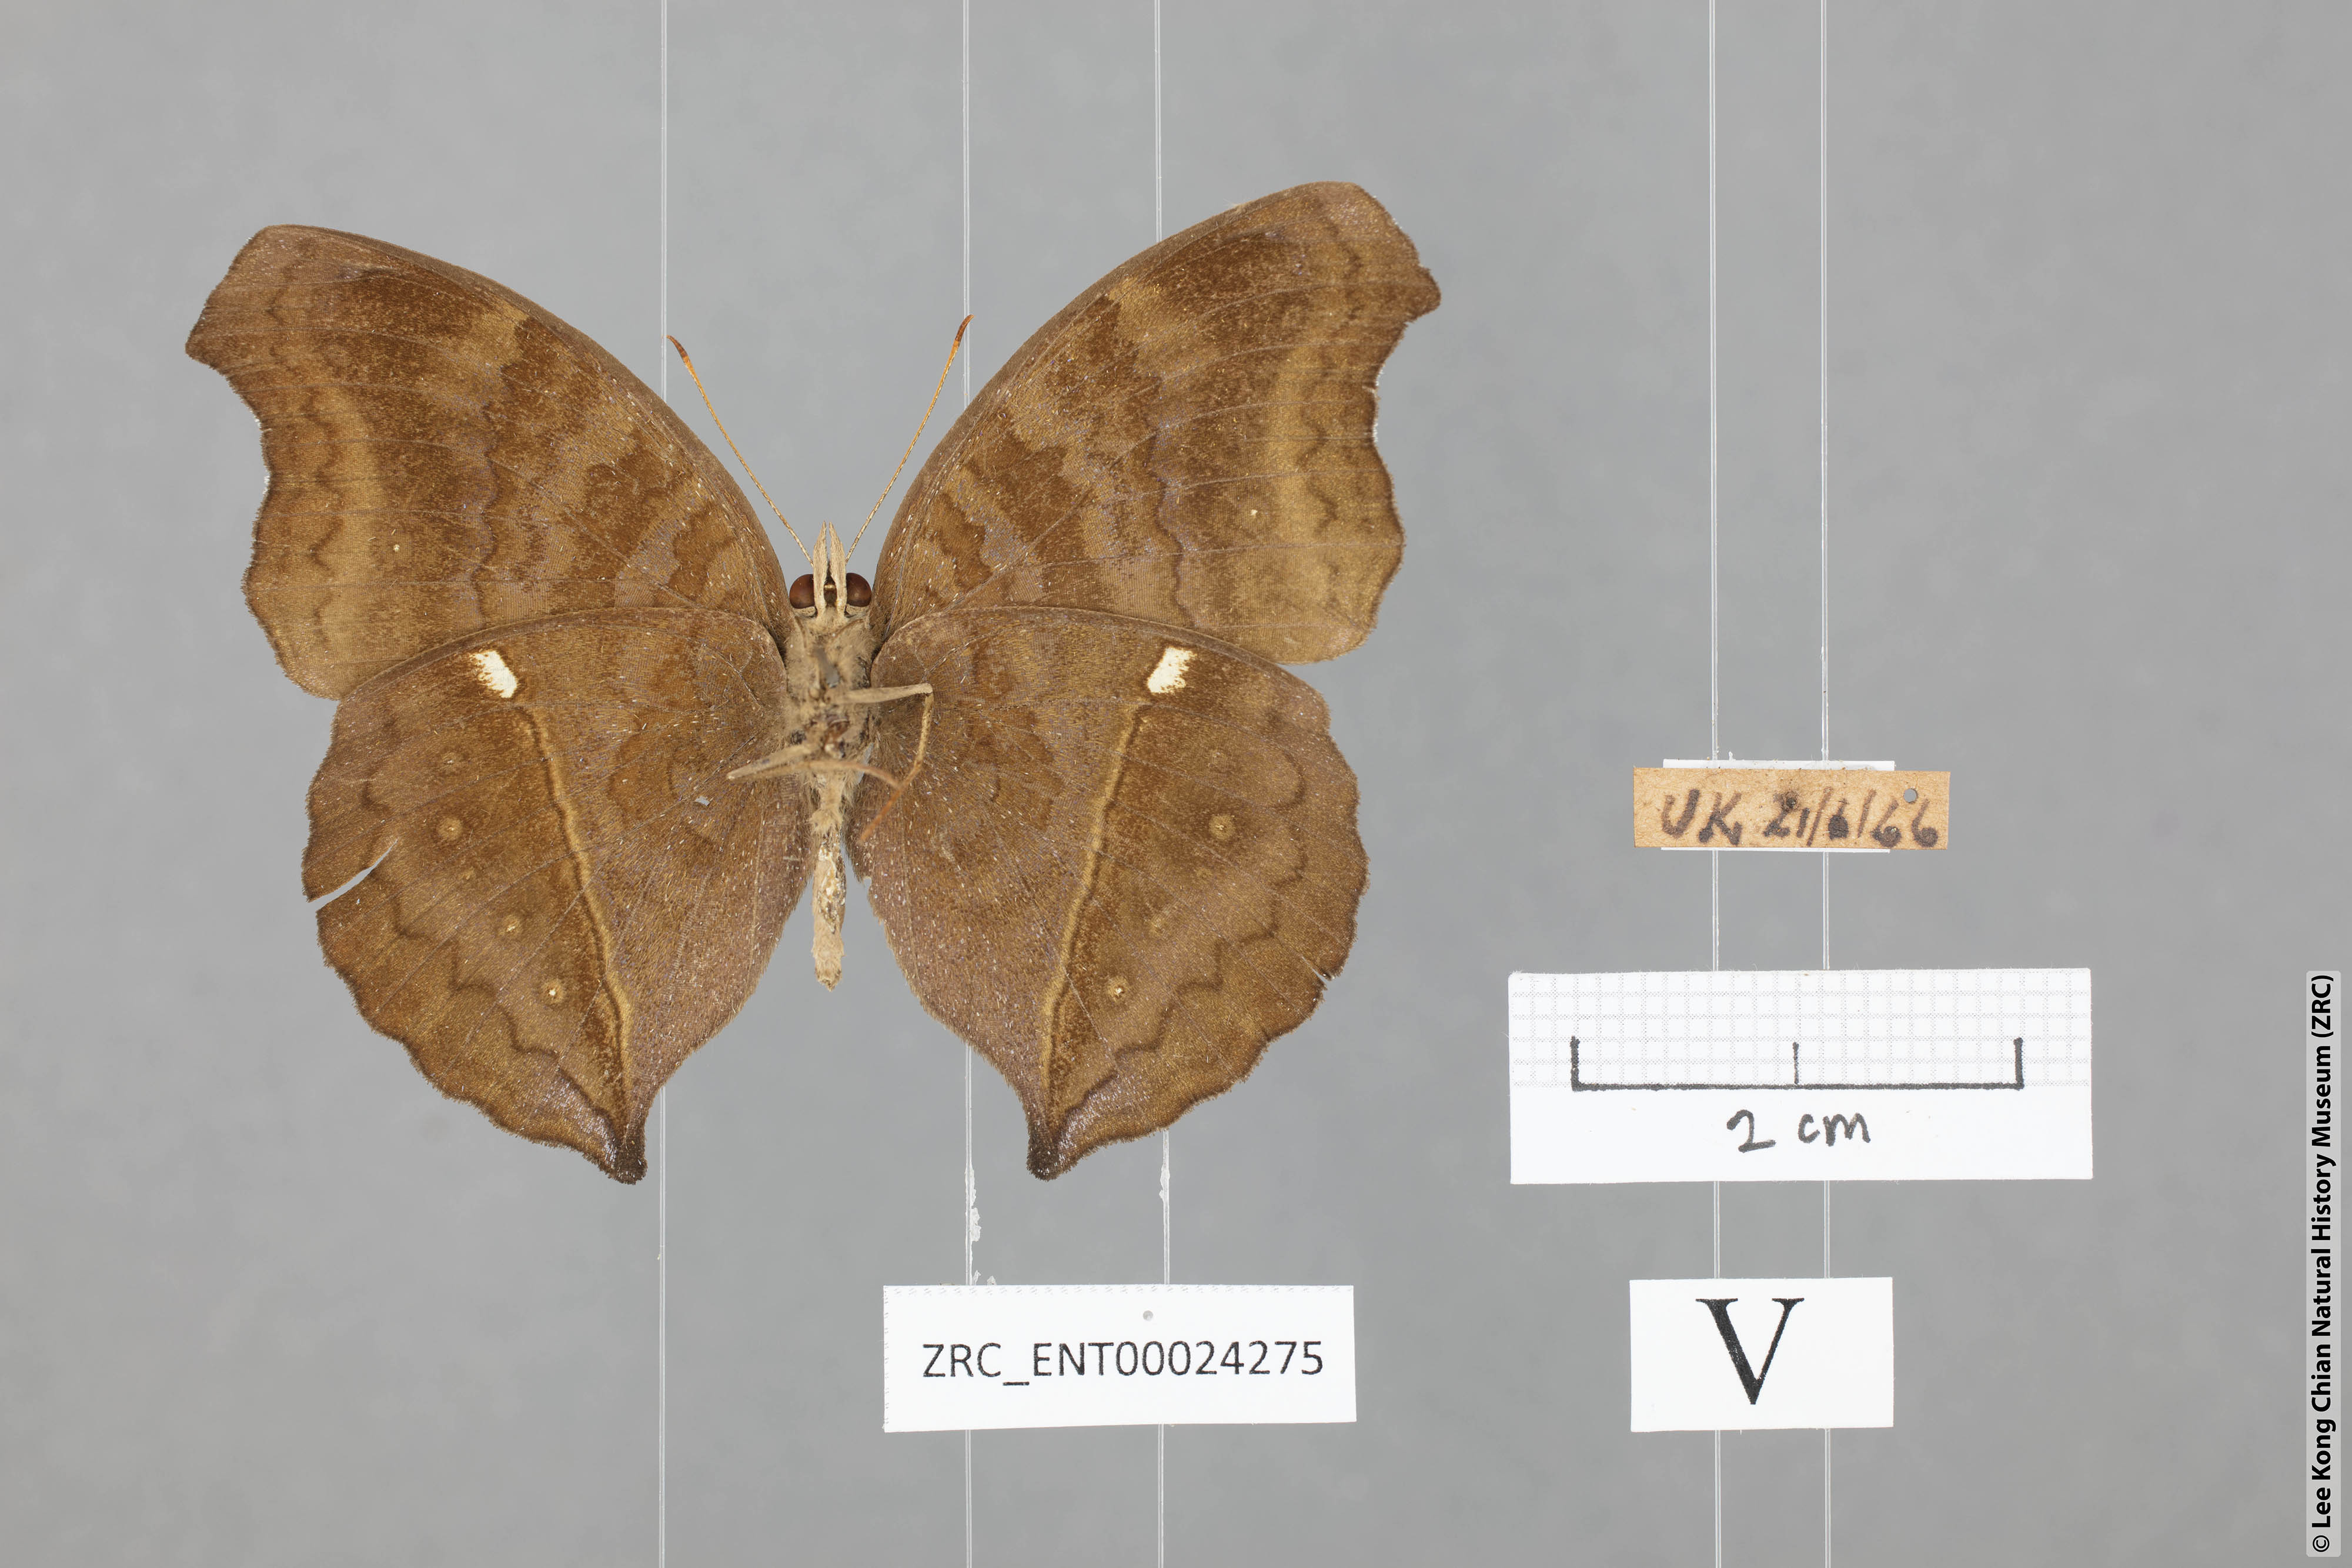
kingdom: Animalia
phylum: Arthropoda
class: Insecta
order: Lepidoptera
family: Nymphalidae
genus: Junonia
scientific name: Junonia iphita
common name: Chocolate pansy
